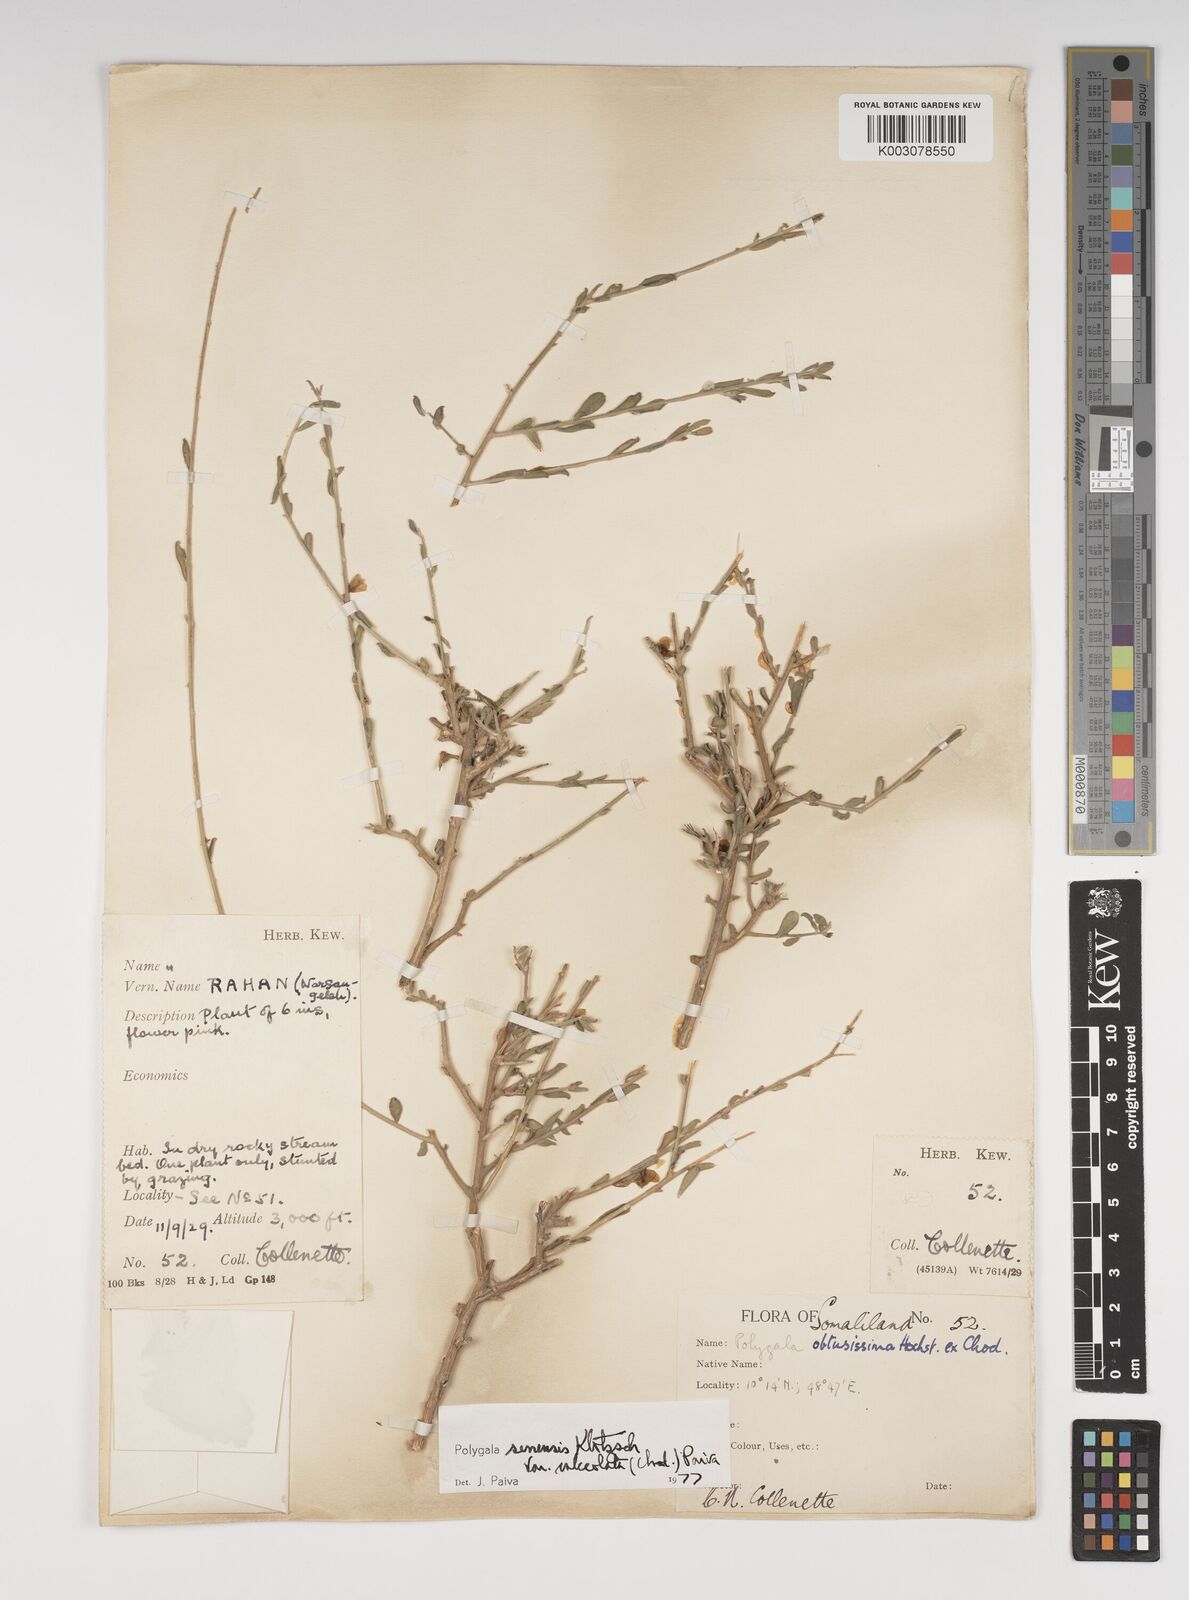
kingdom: Plantae
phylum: Tracheophyta
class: Magnoliopsida
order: Fabales
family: Polygalaceae
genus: Polygala
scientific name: Polygala obtusissima
